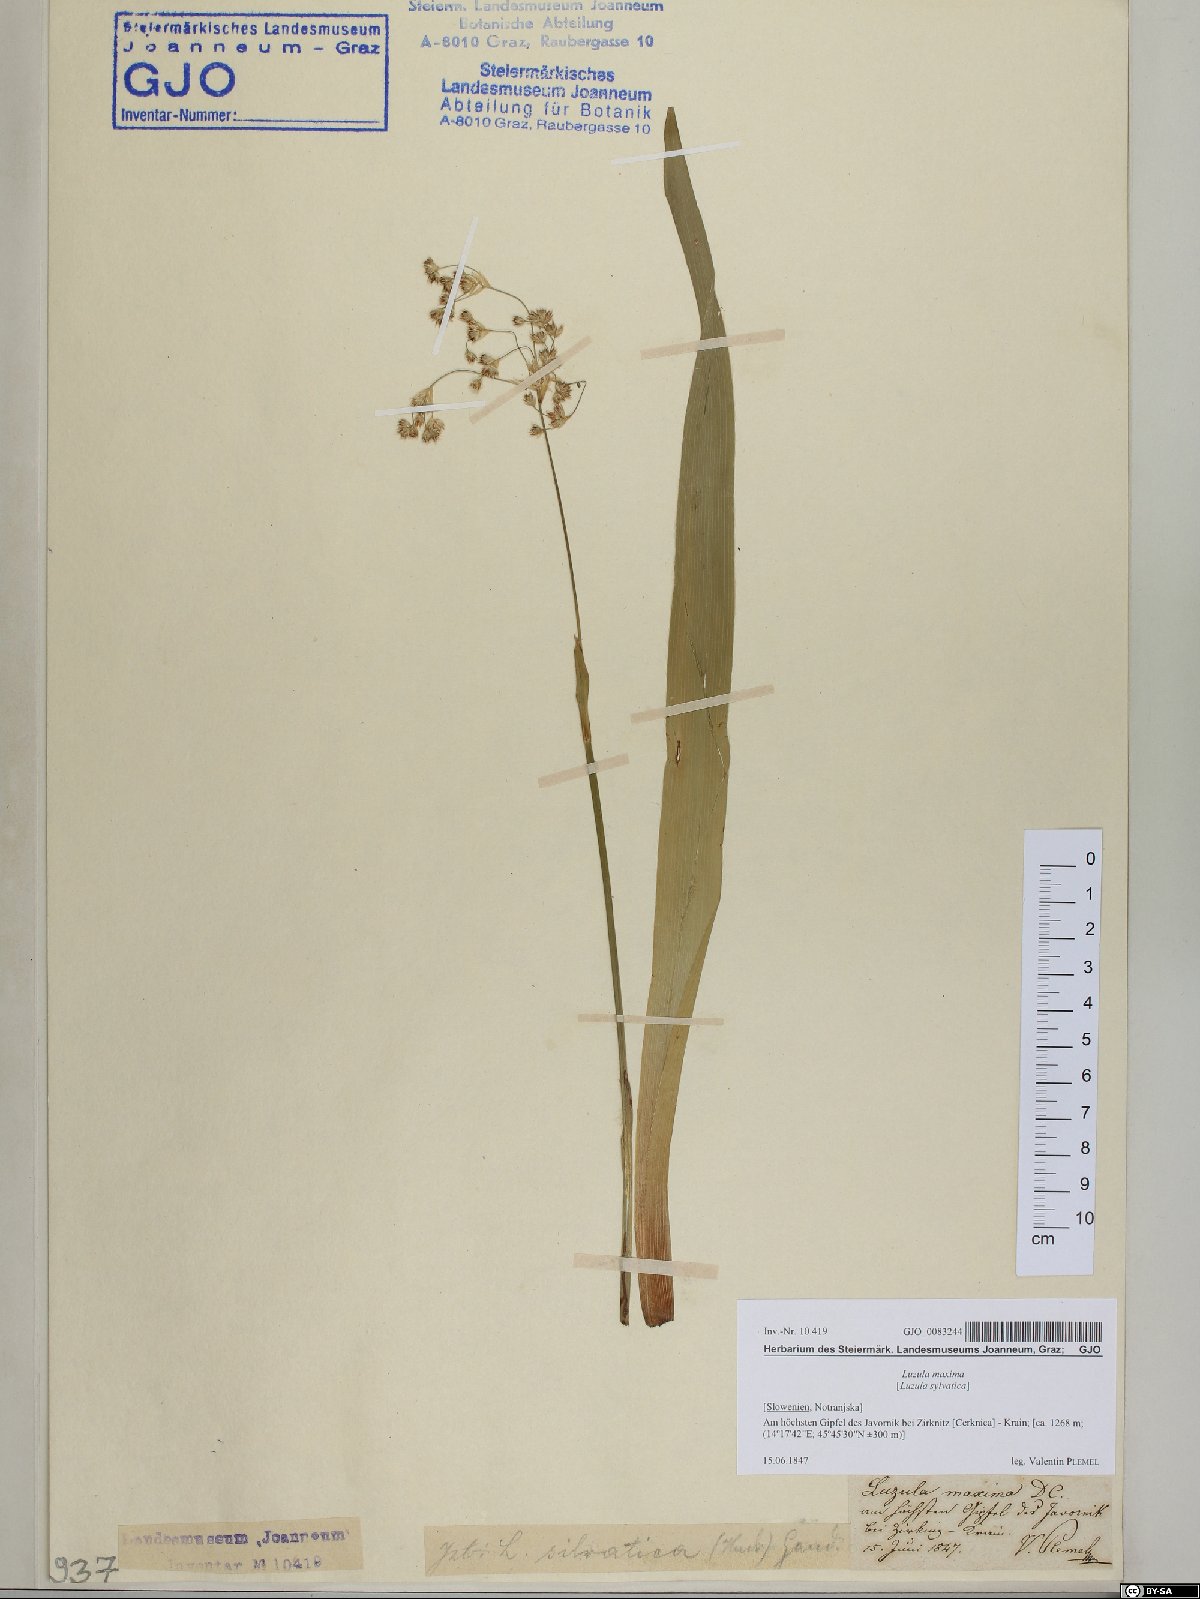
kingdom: Plantae
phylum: Tracheophyta
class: Liliopsida
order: Poales
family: Juncaceae
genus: Luzula
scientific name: Luzula sylvatica
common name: Great wood-rush
